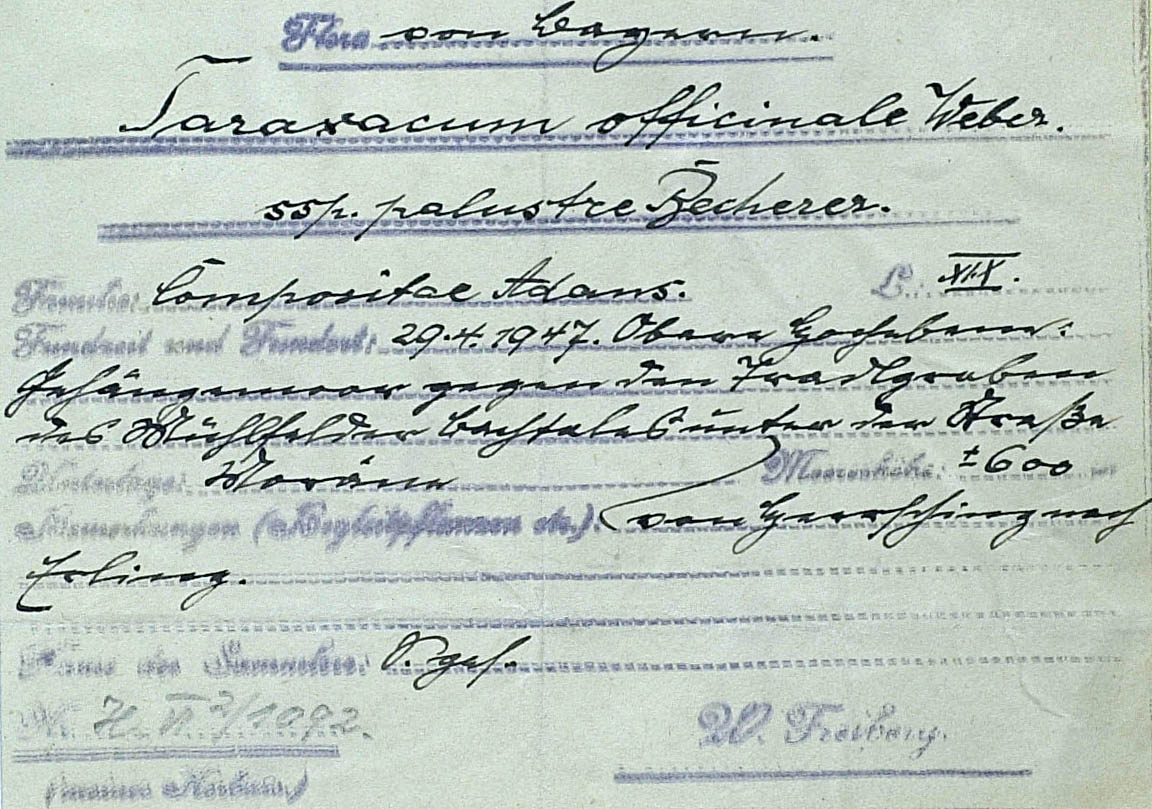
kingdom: Plantae
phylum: Tracheophyta
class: Magnoliopsida
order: Asterales
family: Asteraceae
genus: Taraxacum
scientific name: Taraxacum austrinum
